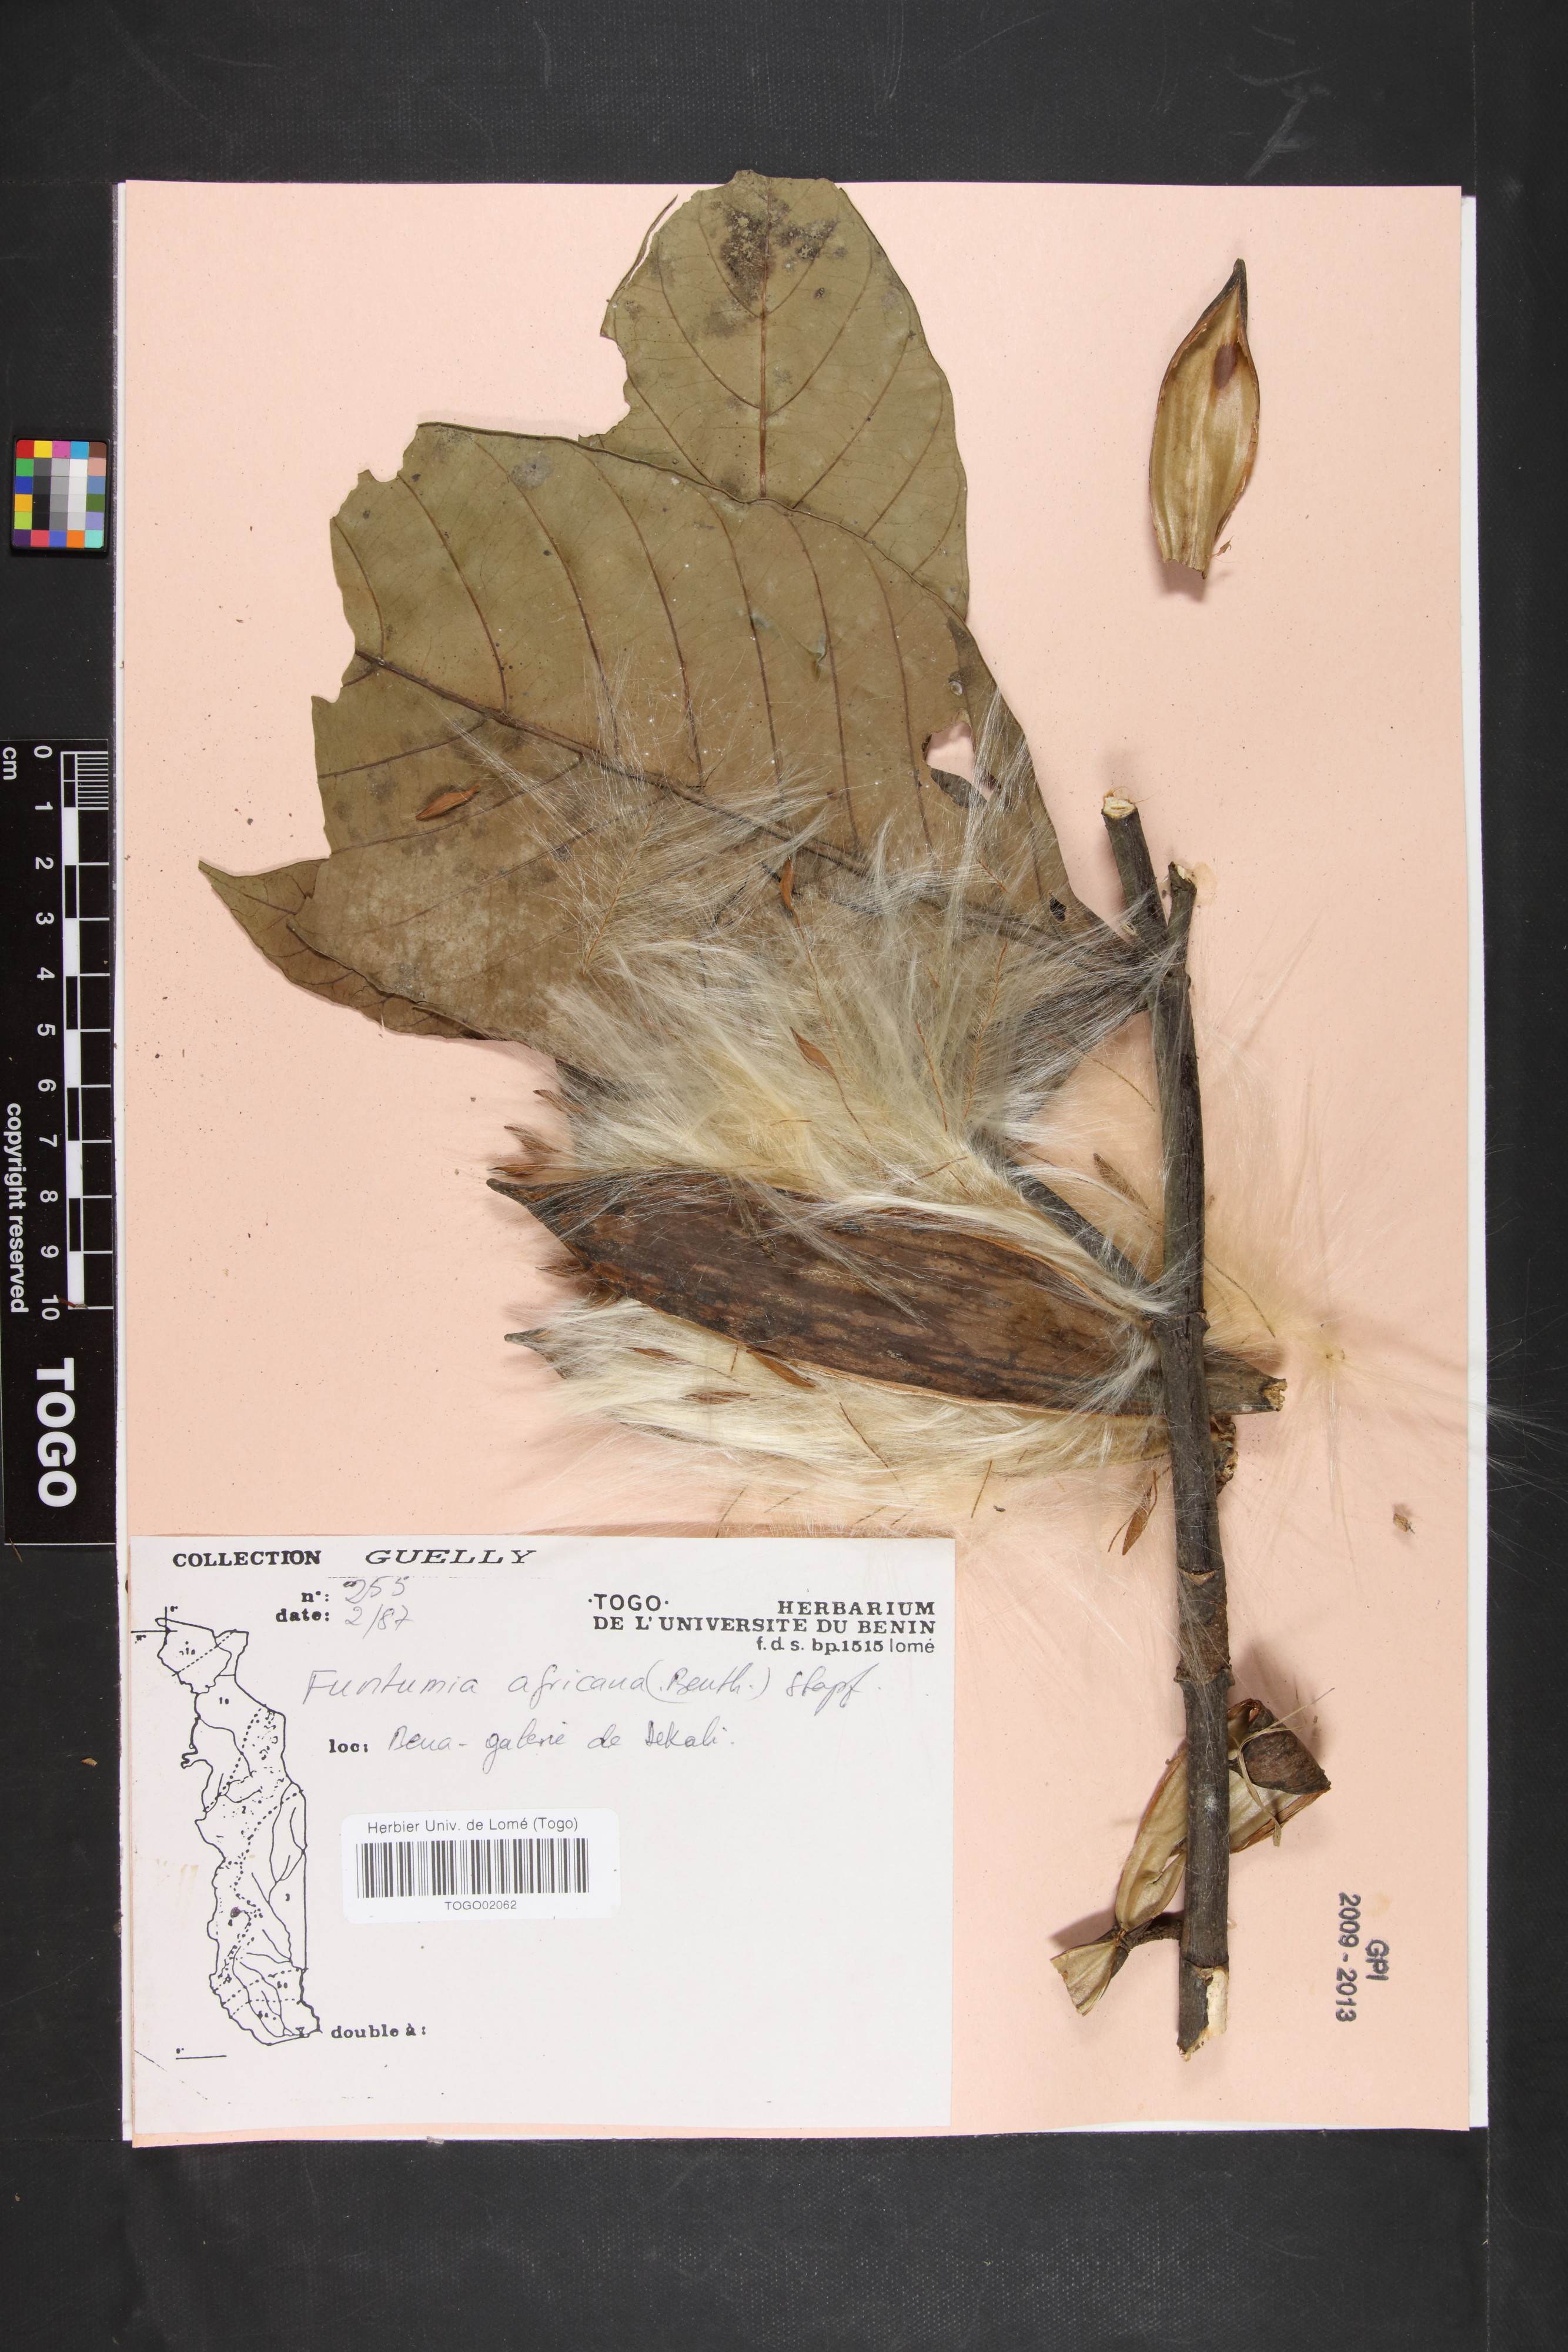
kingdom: Plantae
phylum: Tracheophyta
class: Magnoliopsida
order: Gentianales
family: Apocynaceae
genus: Funtumia
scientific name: Funtumia africana
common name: Lagos-rubber
